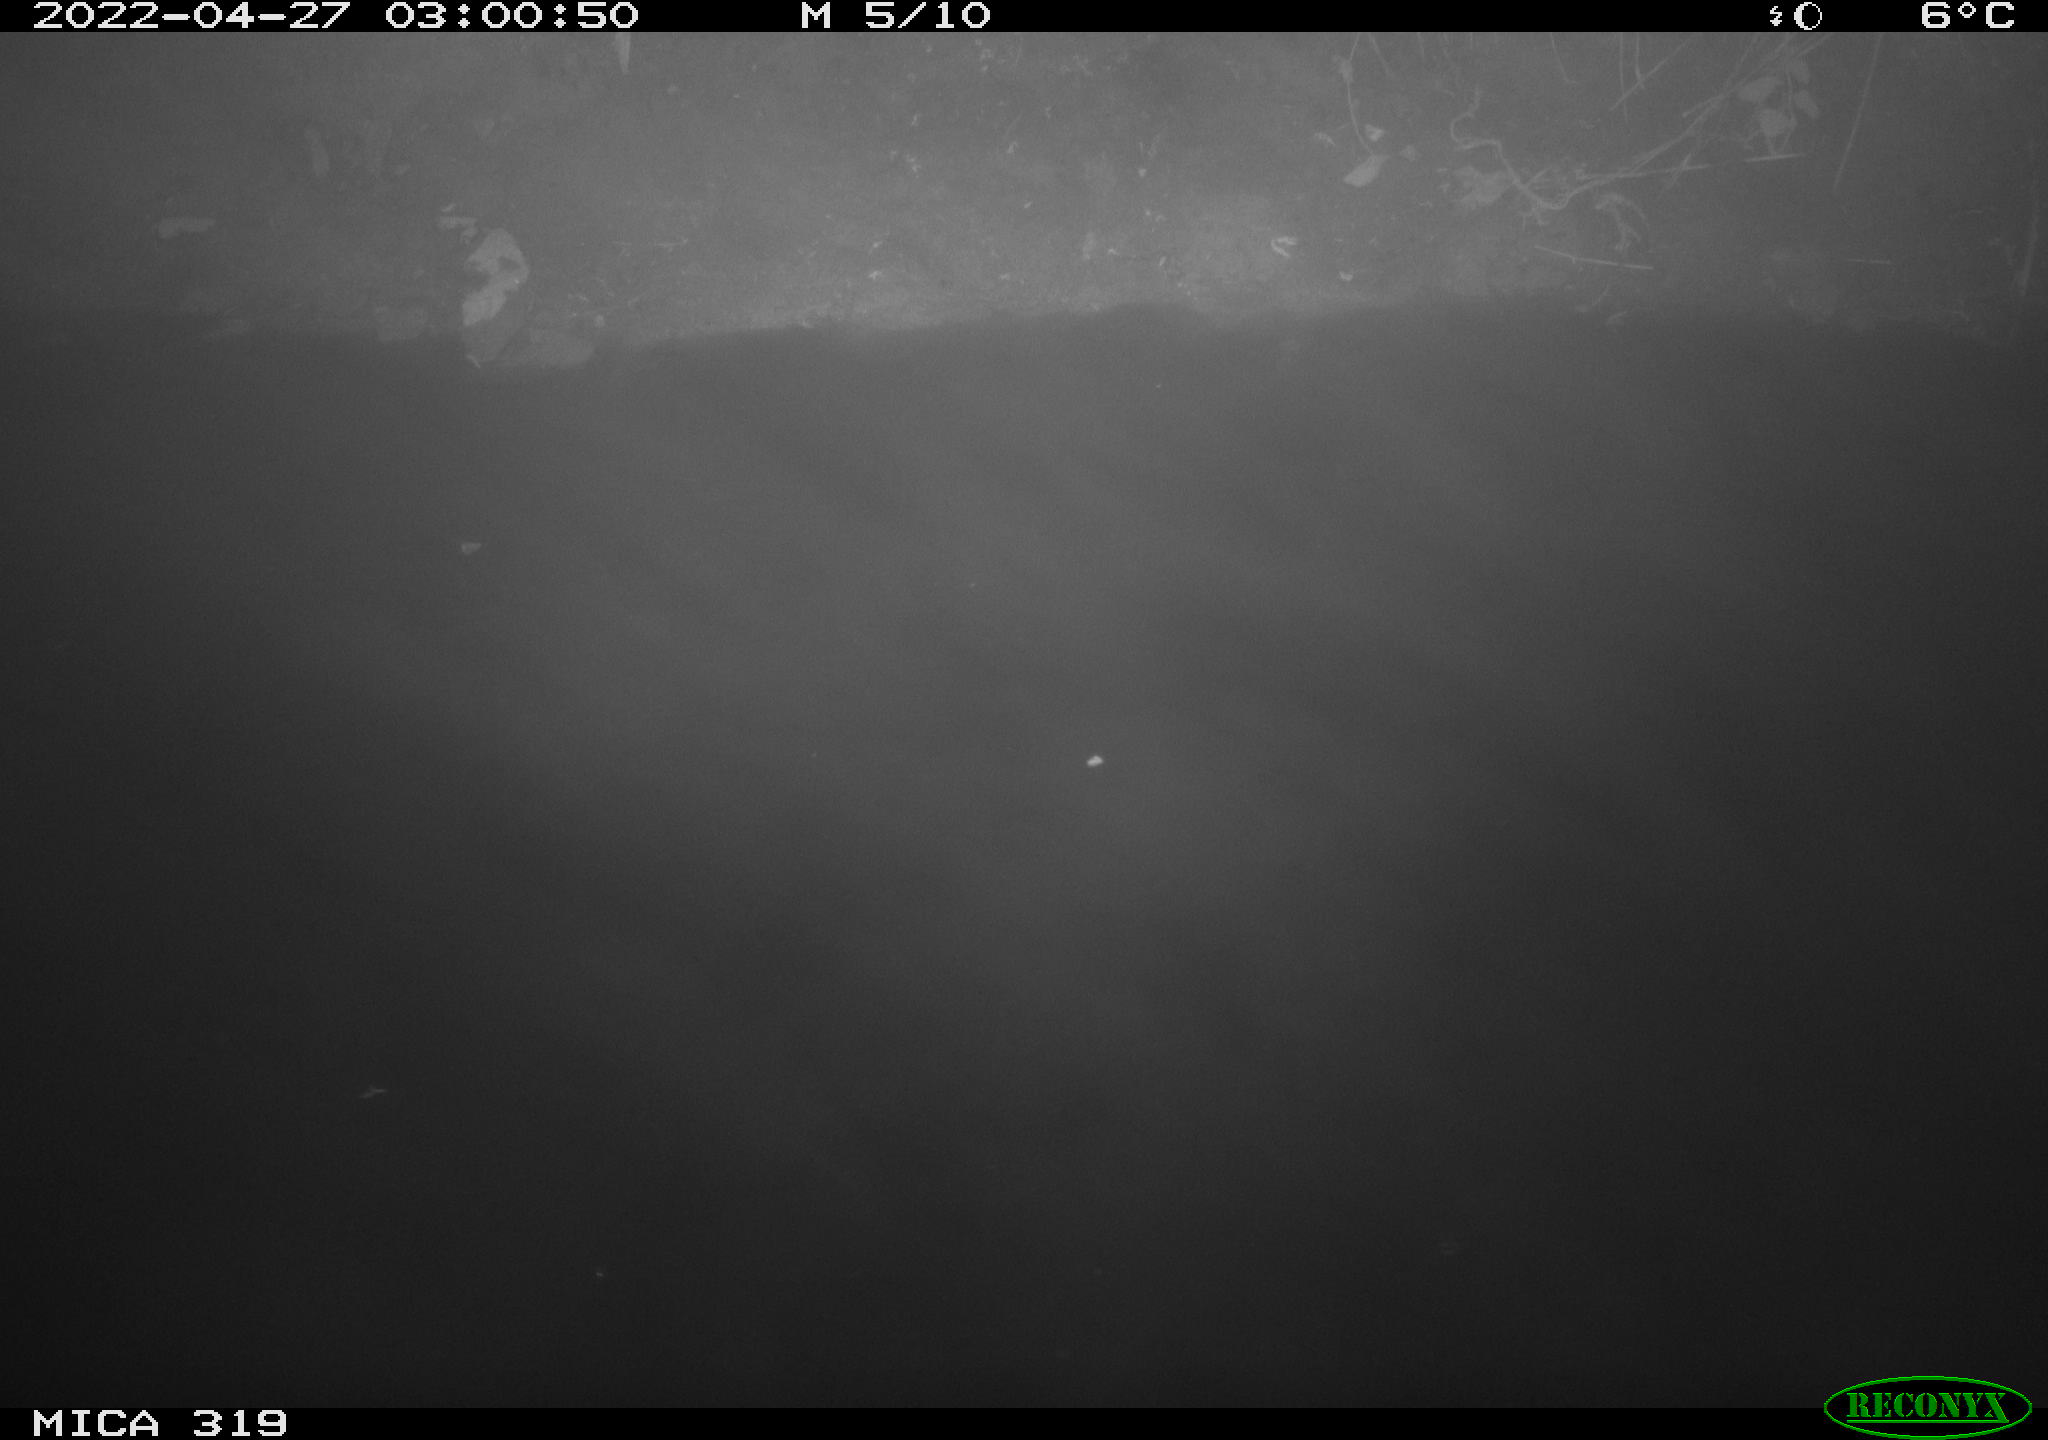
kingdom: Animalia
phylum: Chordata
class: Aves
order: Anseriformes
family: Anatidae
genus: Anas
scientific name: Anas platyrhynchos
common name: Mallard
